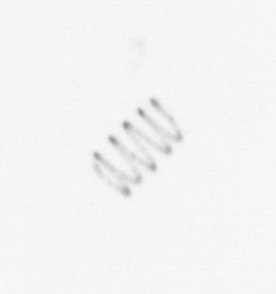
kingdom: Chromista
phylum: Ochrophyta
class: Bacillariophyceae
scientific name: Bacillariophyceae
